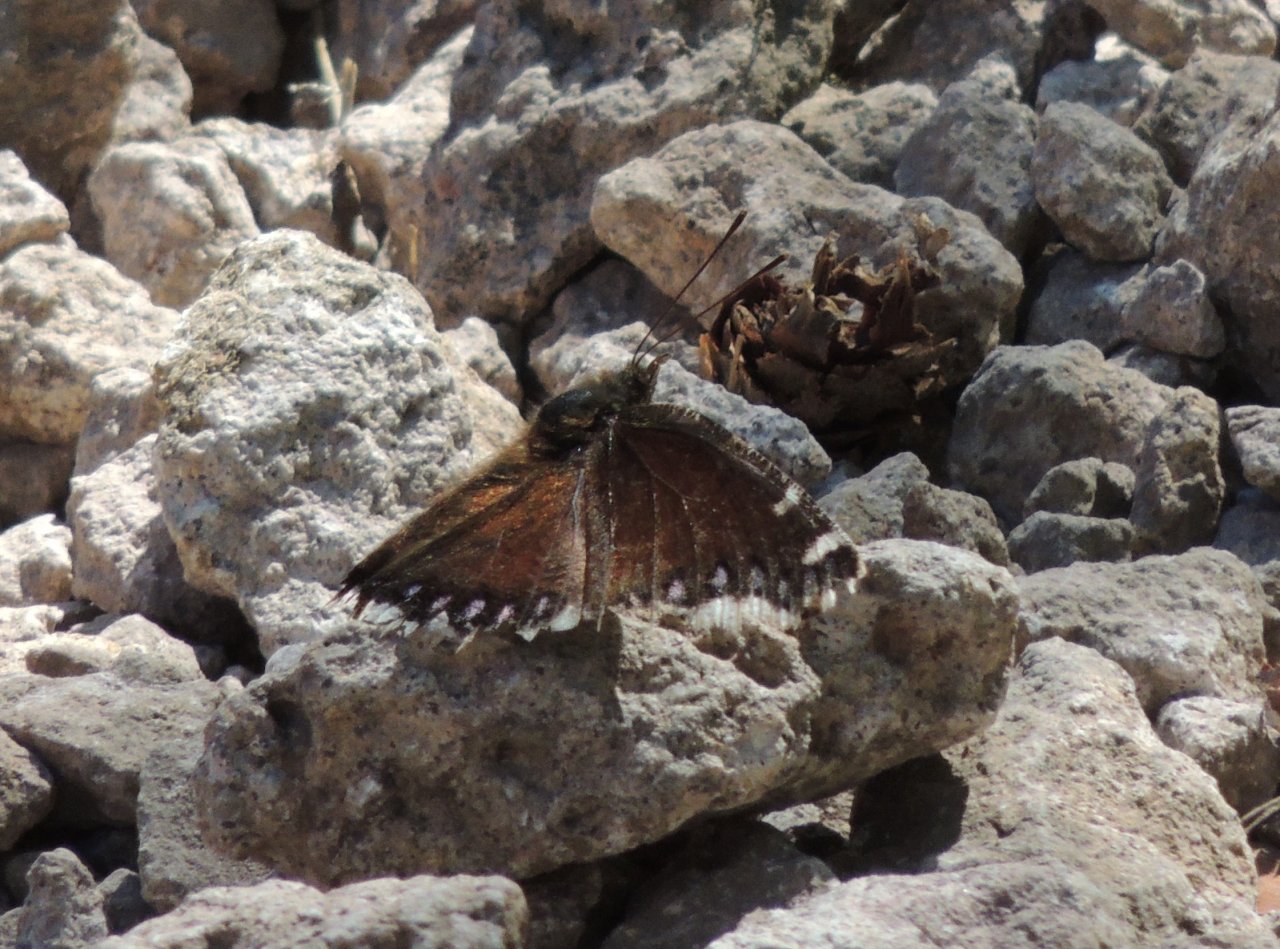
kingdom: Animalia
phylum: Arthropoda
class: Insecta
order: Lepidoptera
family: Nymphalidae
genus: Nymphalis
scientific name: Nymphalis antiopa
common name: Mourning Cloak
